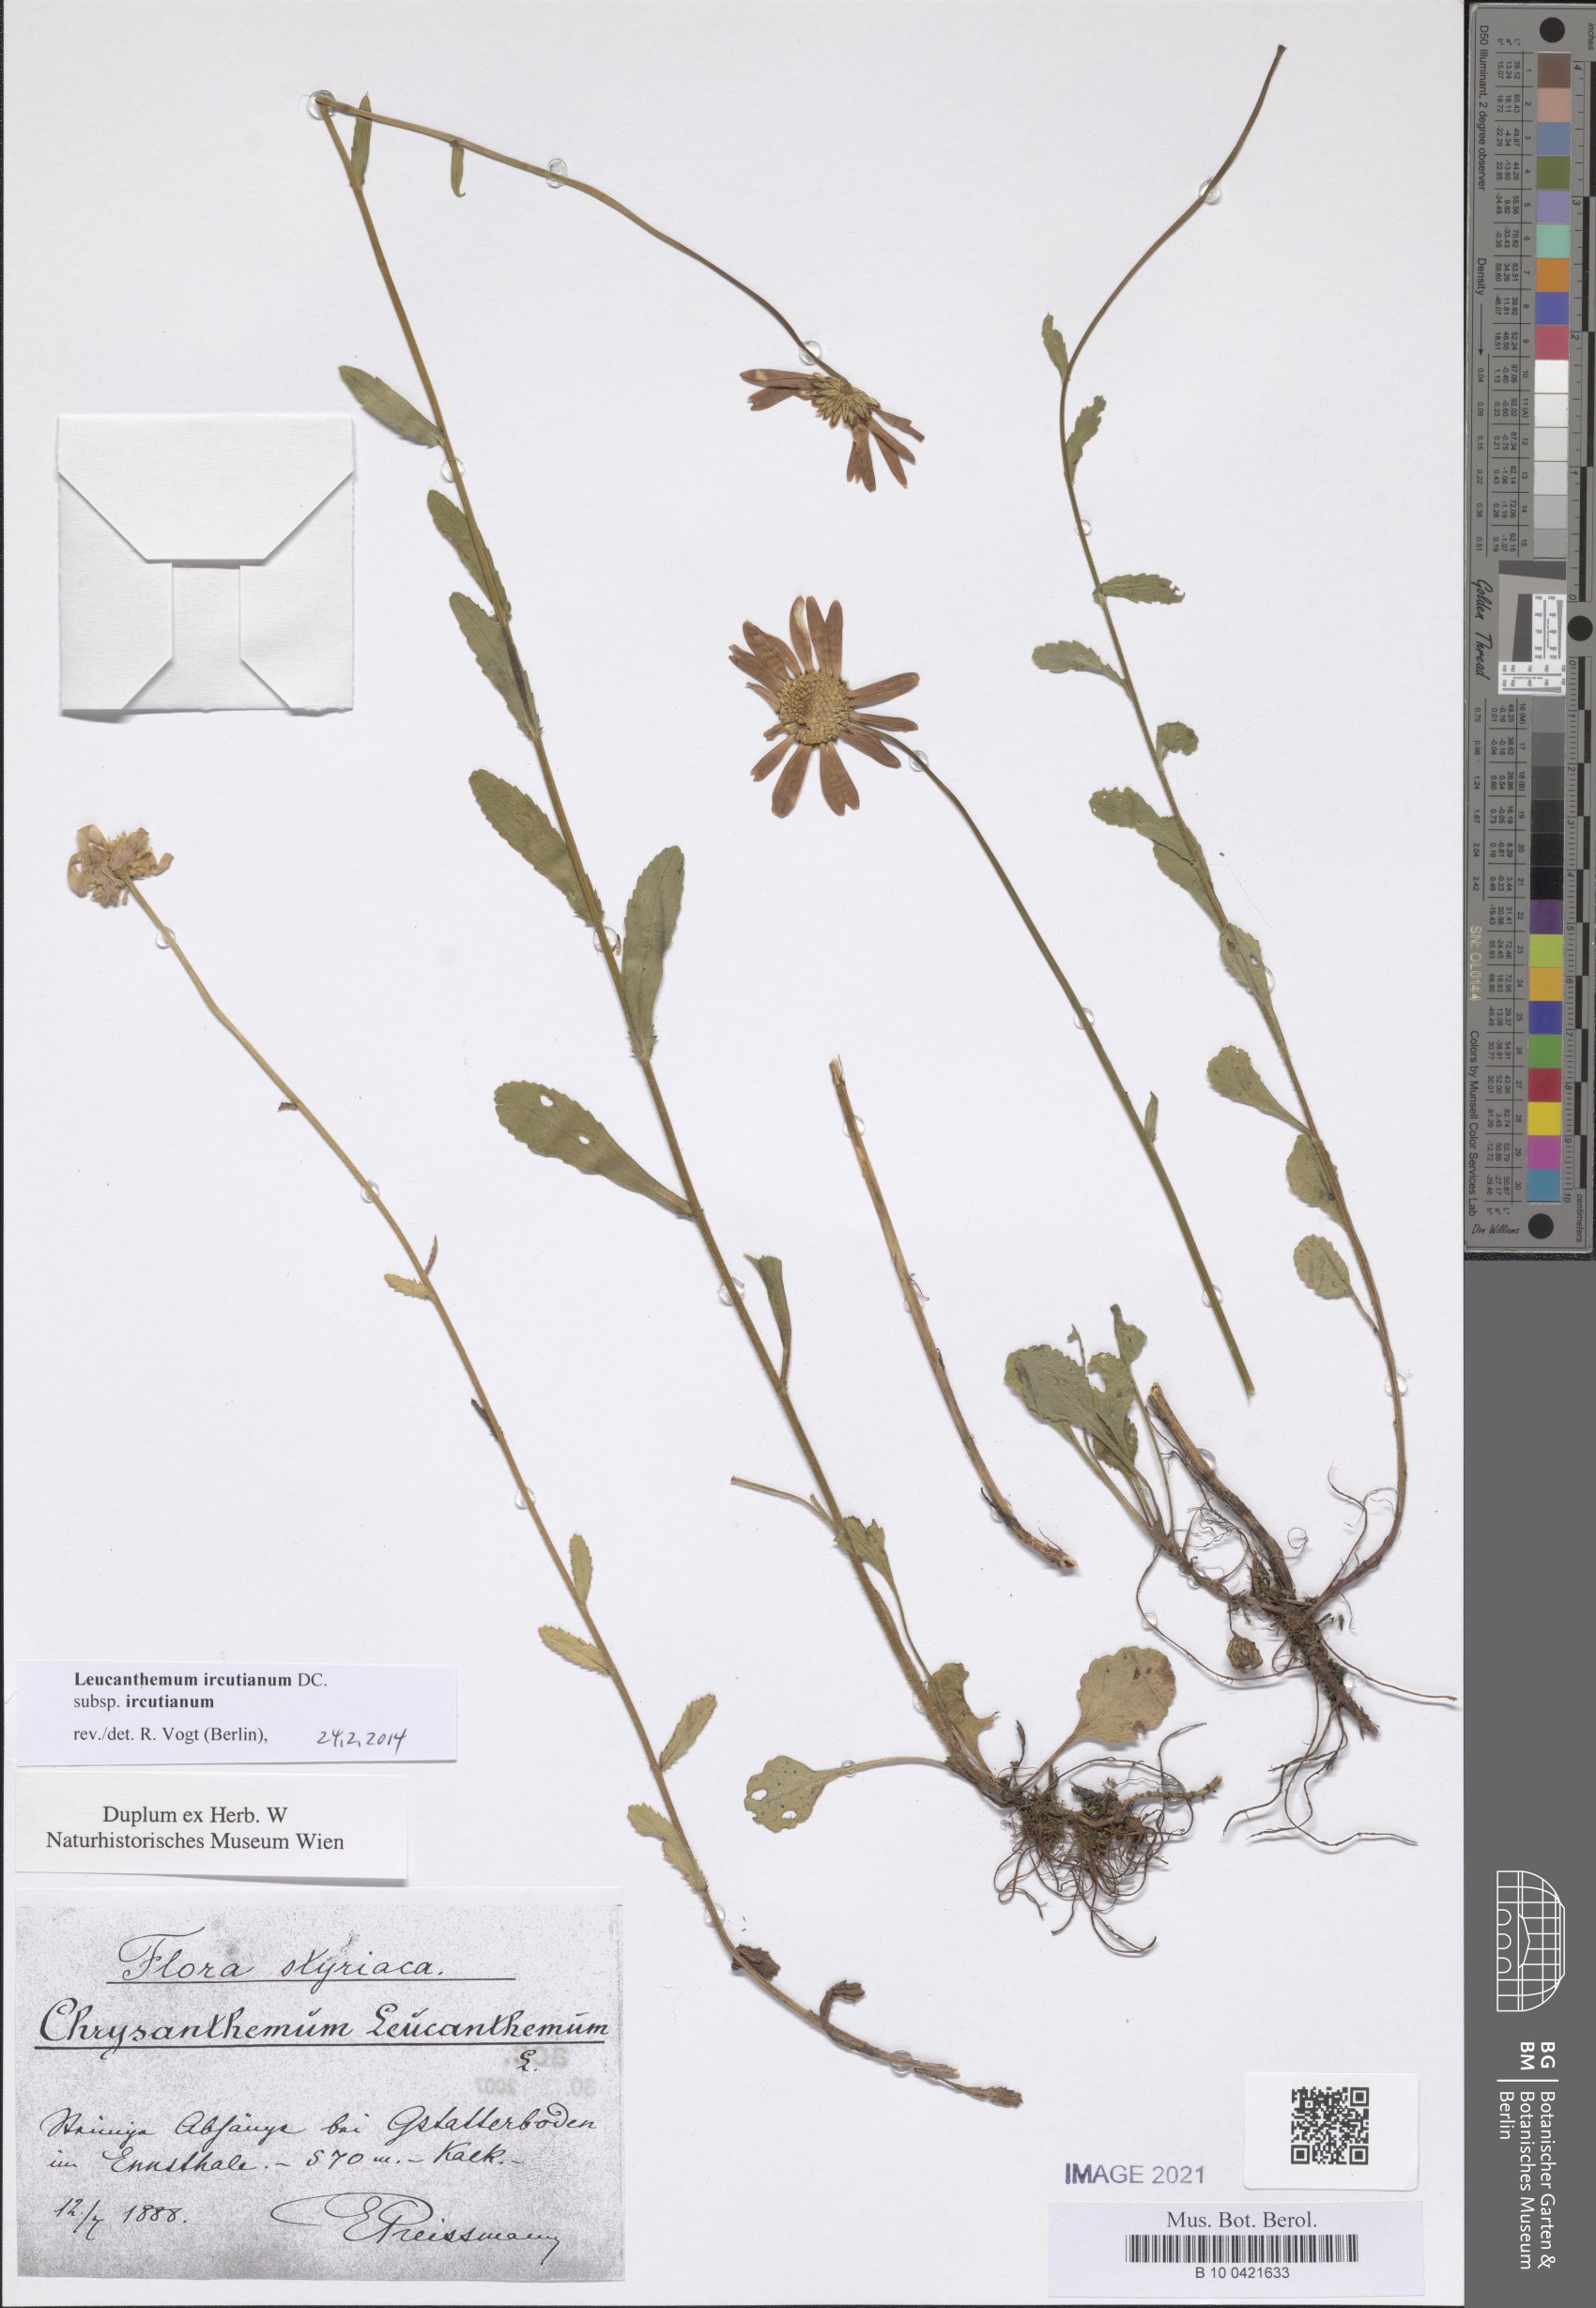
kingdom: Plantae
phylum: Tracheophyta
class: Magnoliopsida
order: Asterales
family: Asteraceae
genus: Leucanthemum
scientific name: Leucanthemum ircutianum
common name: Daisy
